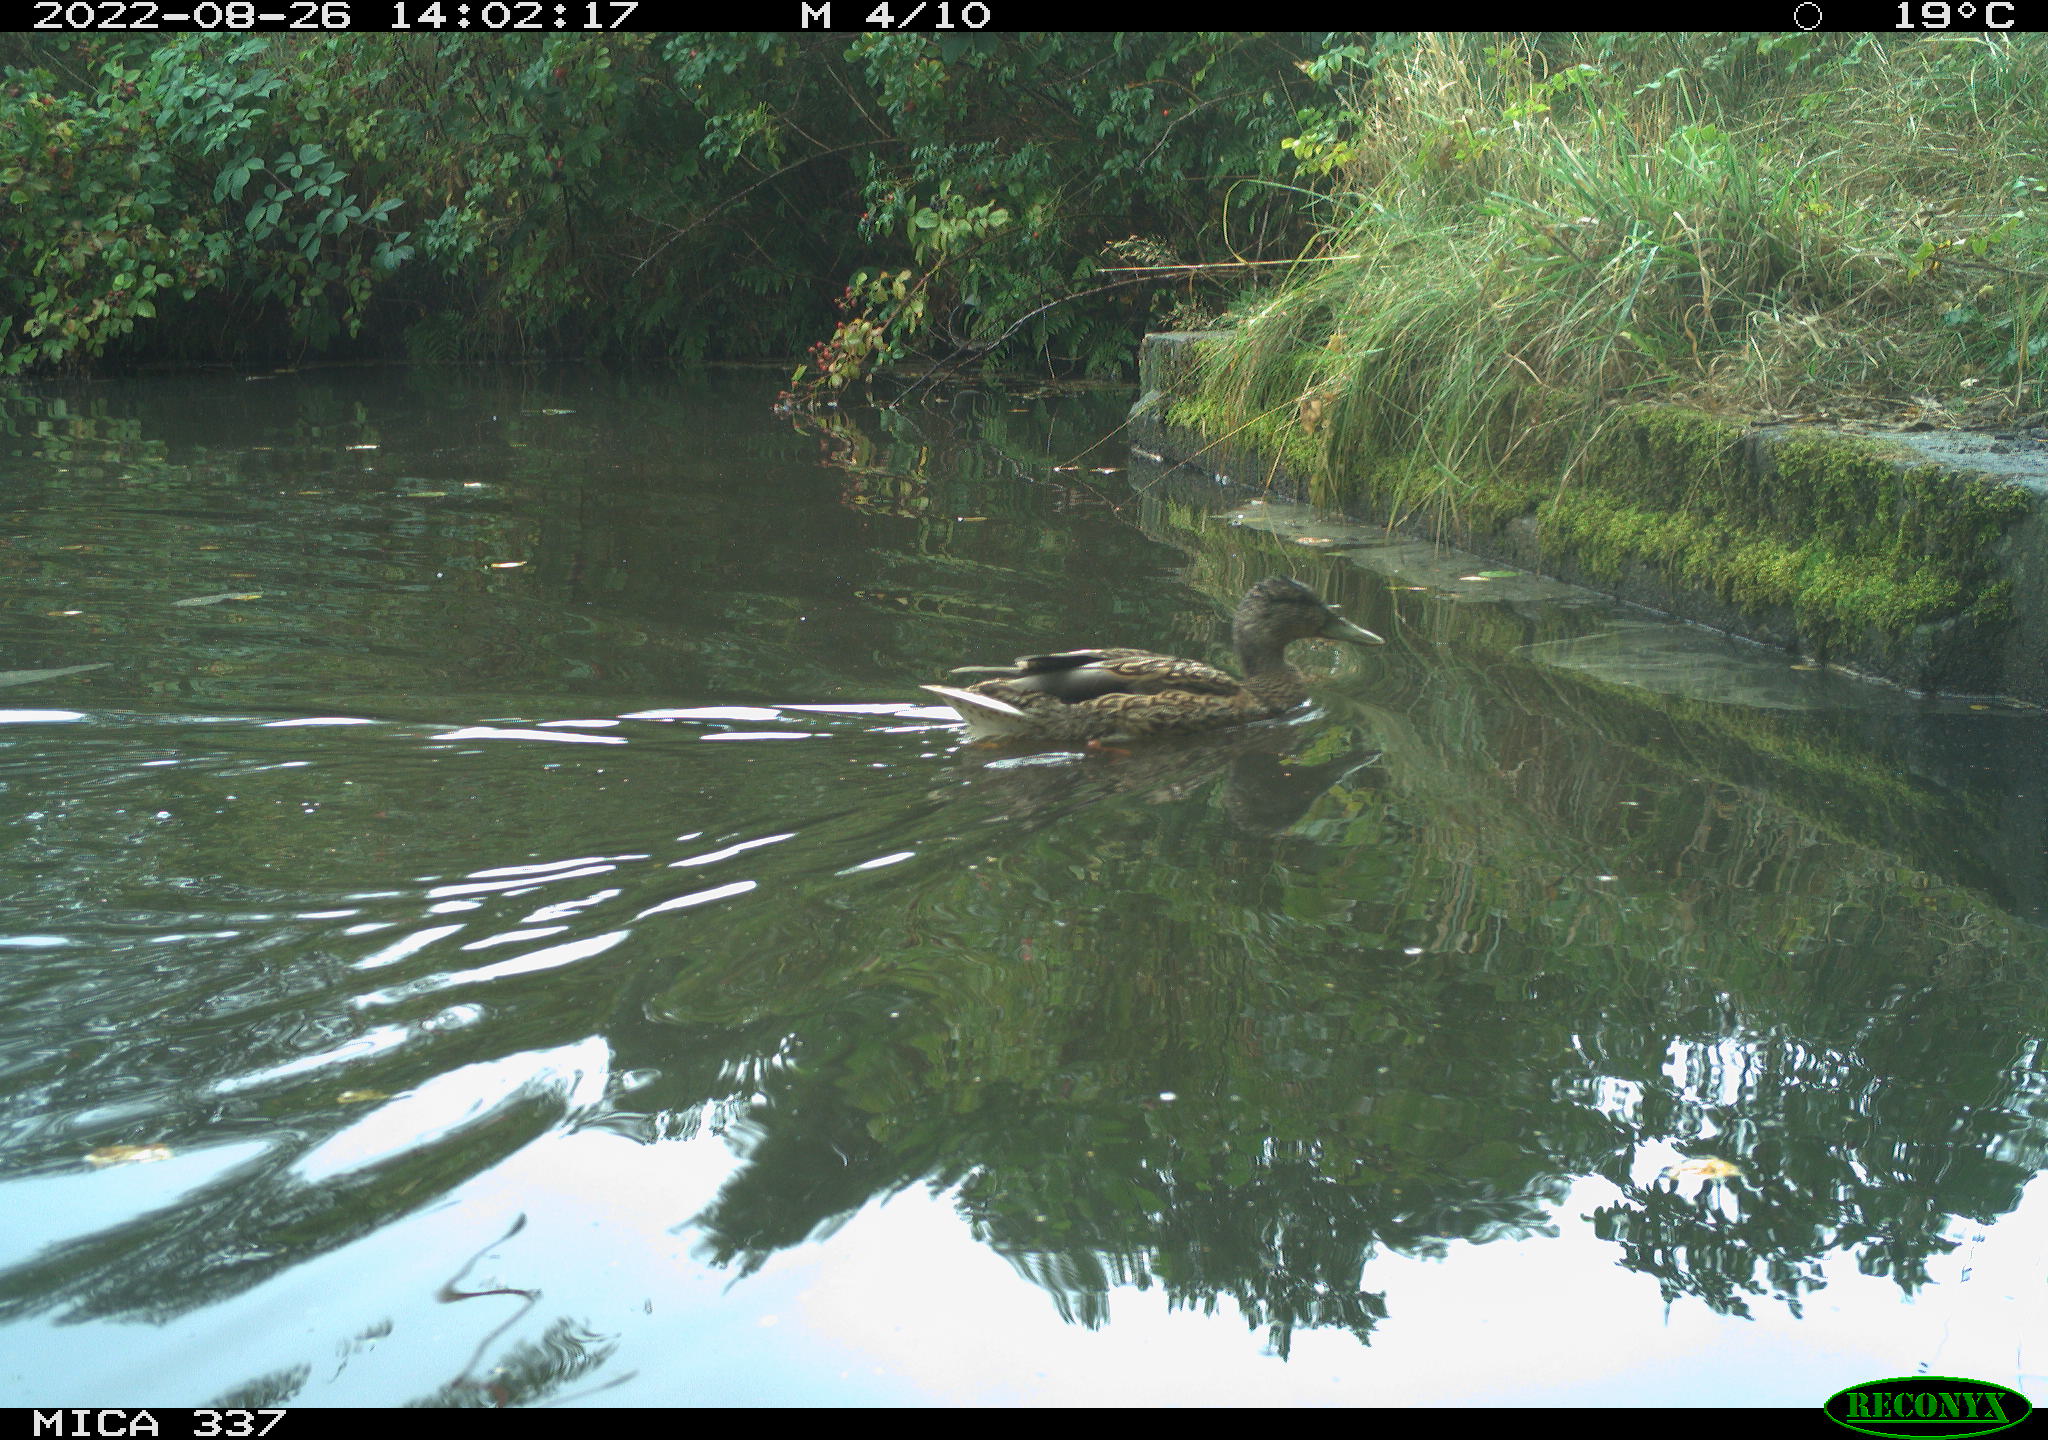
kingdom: Animalia
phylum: Chordata
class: Aves
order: Anseriformes
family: Anatidae
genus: Anas
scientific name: Anas platyrhynchos
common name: Mallard
